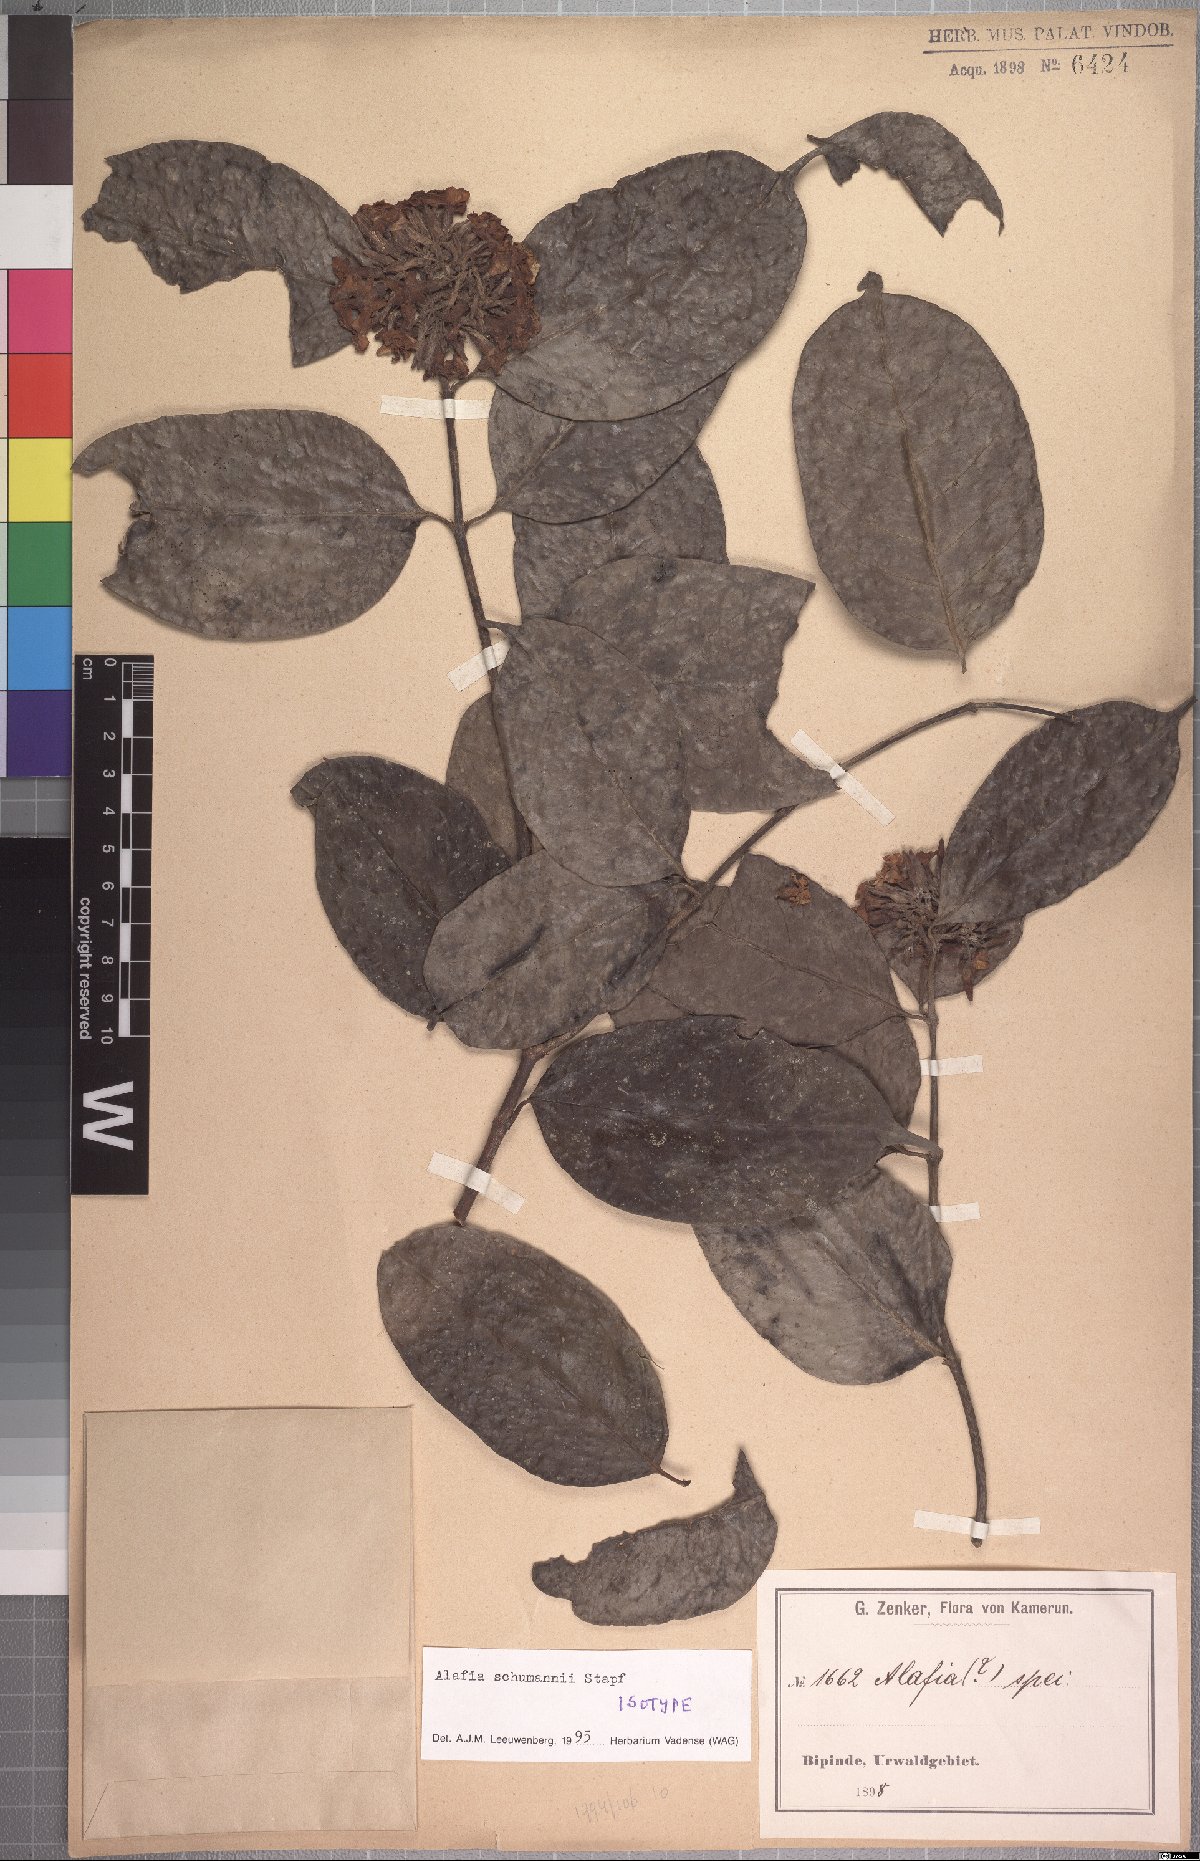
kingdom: Plantae
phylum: Tracheophyta
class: Magnoliopsida
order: Gentianales
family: Apocynaceae
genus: Alafia
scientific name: Alafia schumannii
